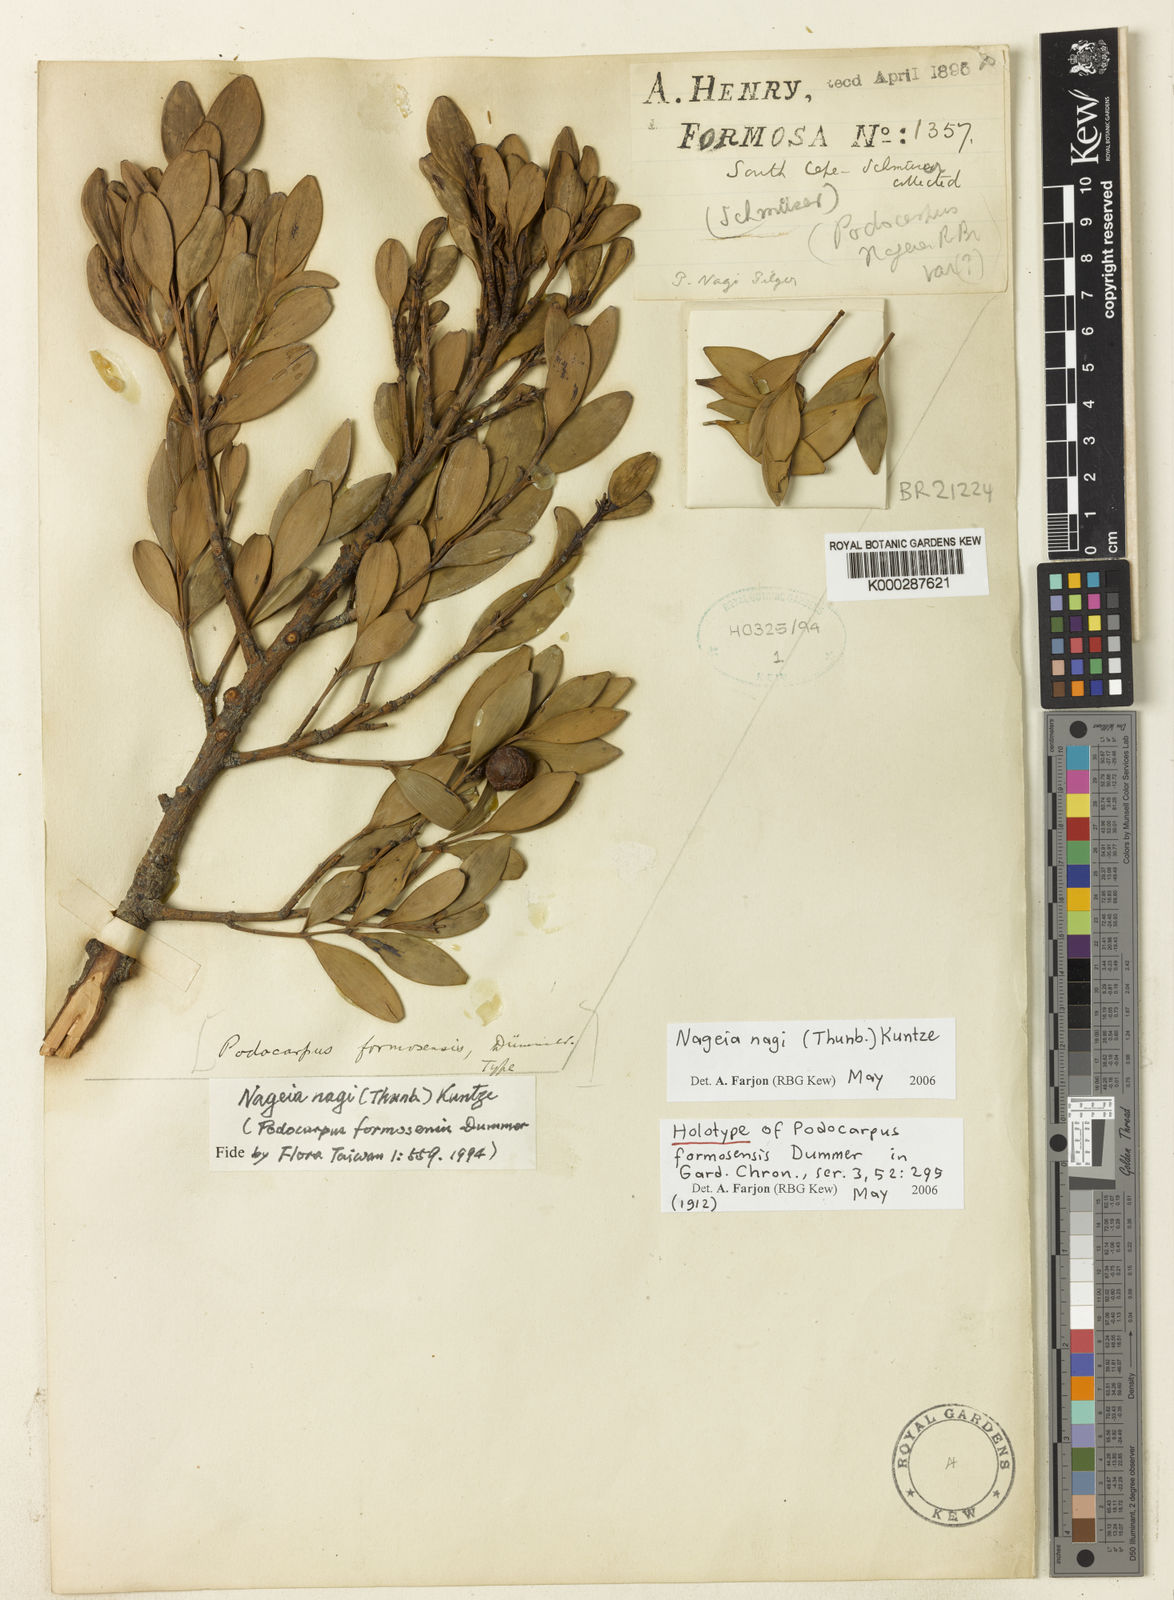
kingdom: Plantae
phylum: Tracheophyta
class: Pinopsida
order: Pinales
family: Podocarpaceae
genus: Nageia
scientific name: Nageia nagi
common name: Kaphal
